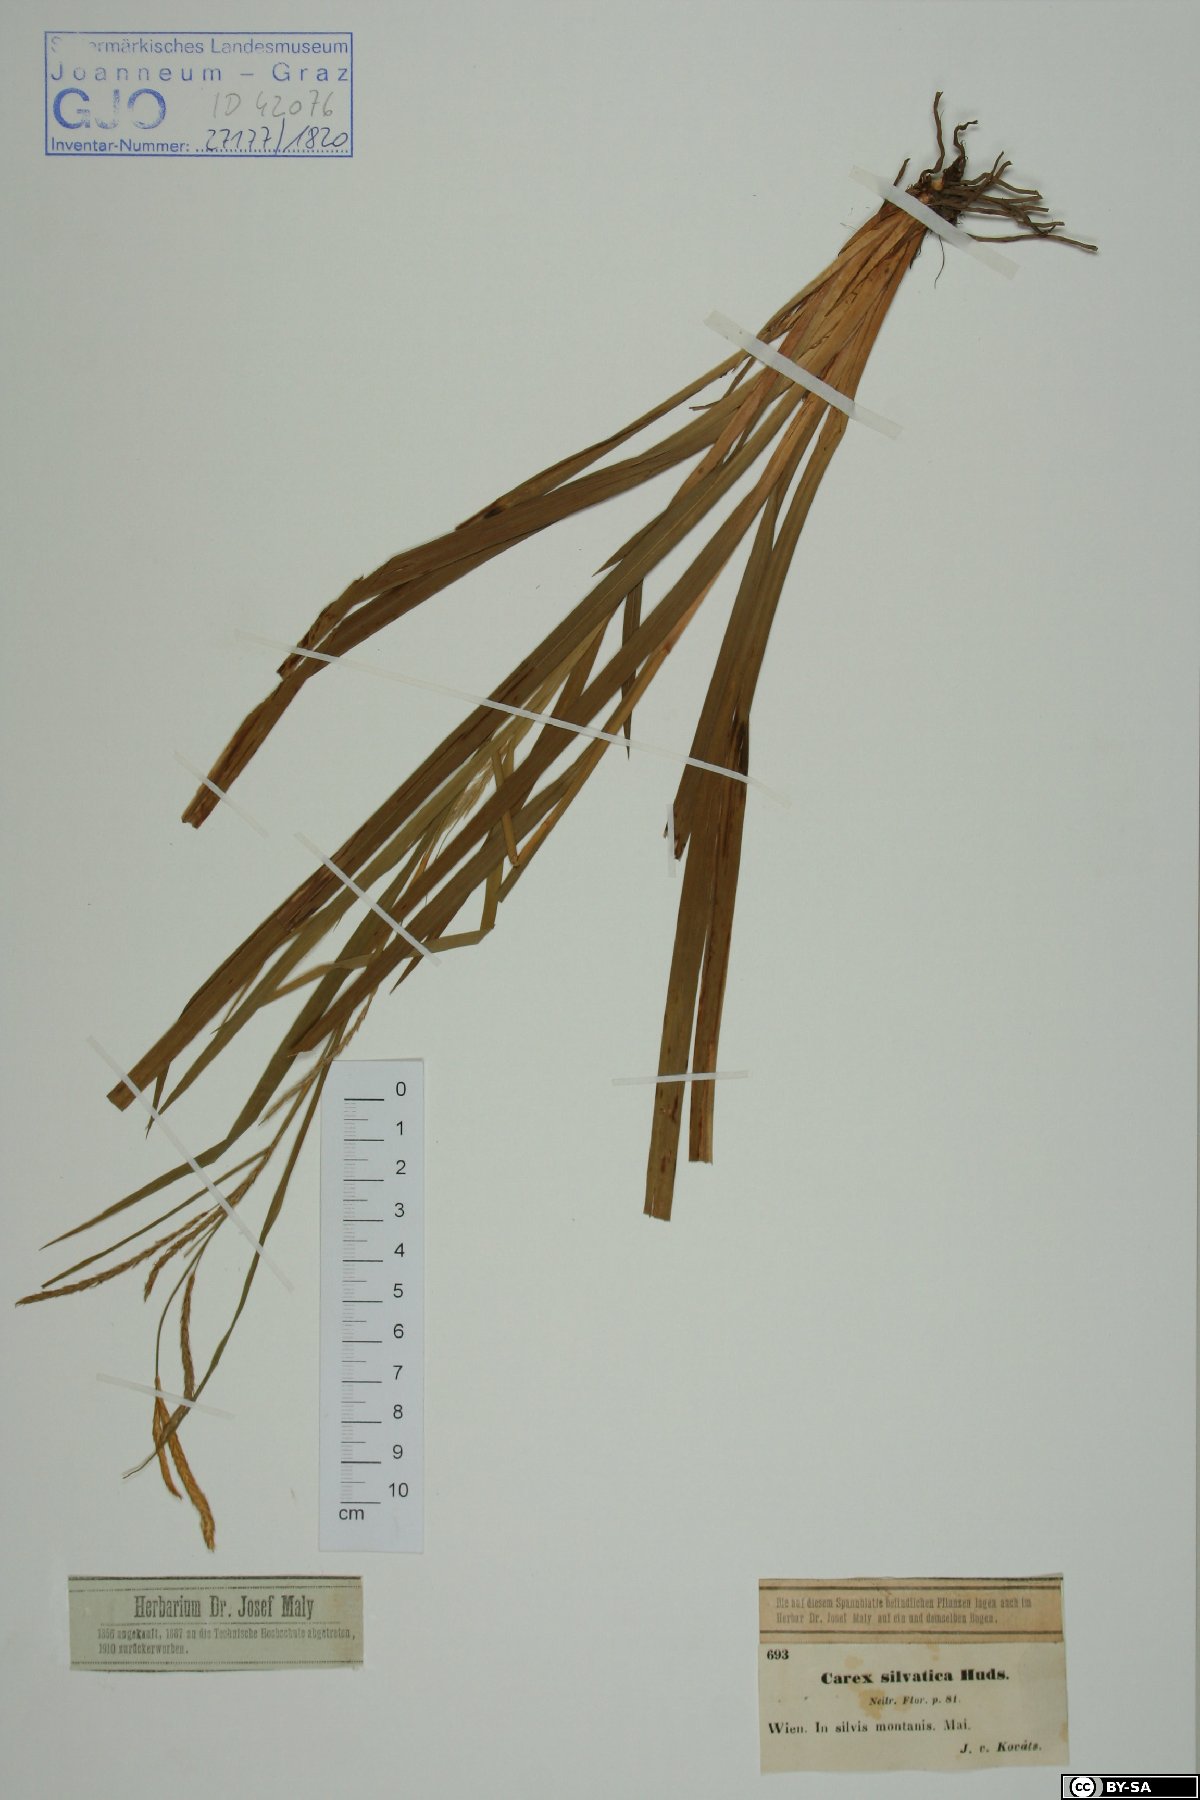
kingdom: Plantae
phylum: Tracheophyta
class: Liliopsida
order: Poales
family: Cyperaceae
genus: Carex
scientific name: Carex sylvatica
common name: Wood-sedge
